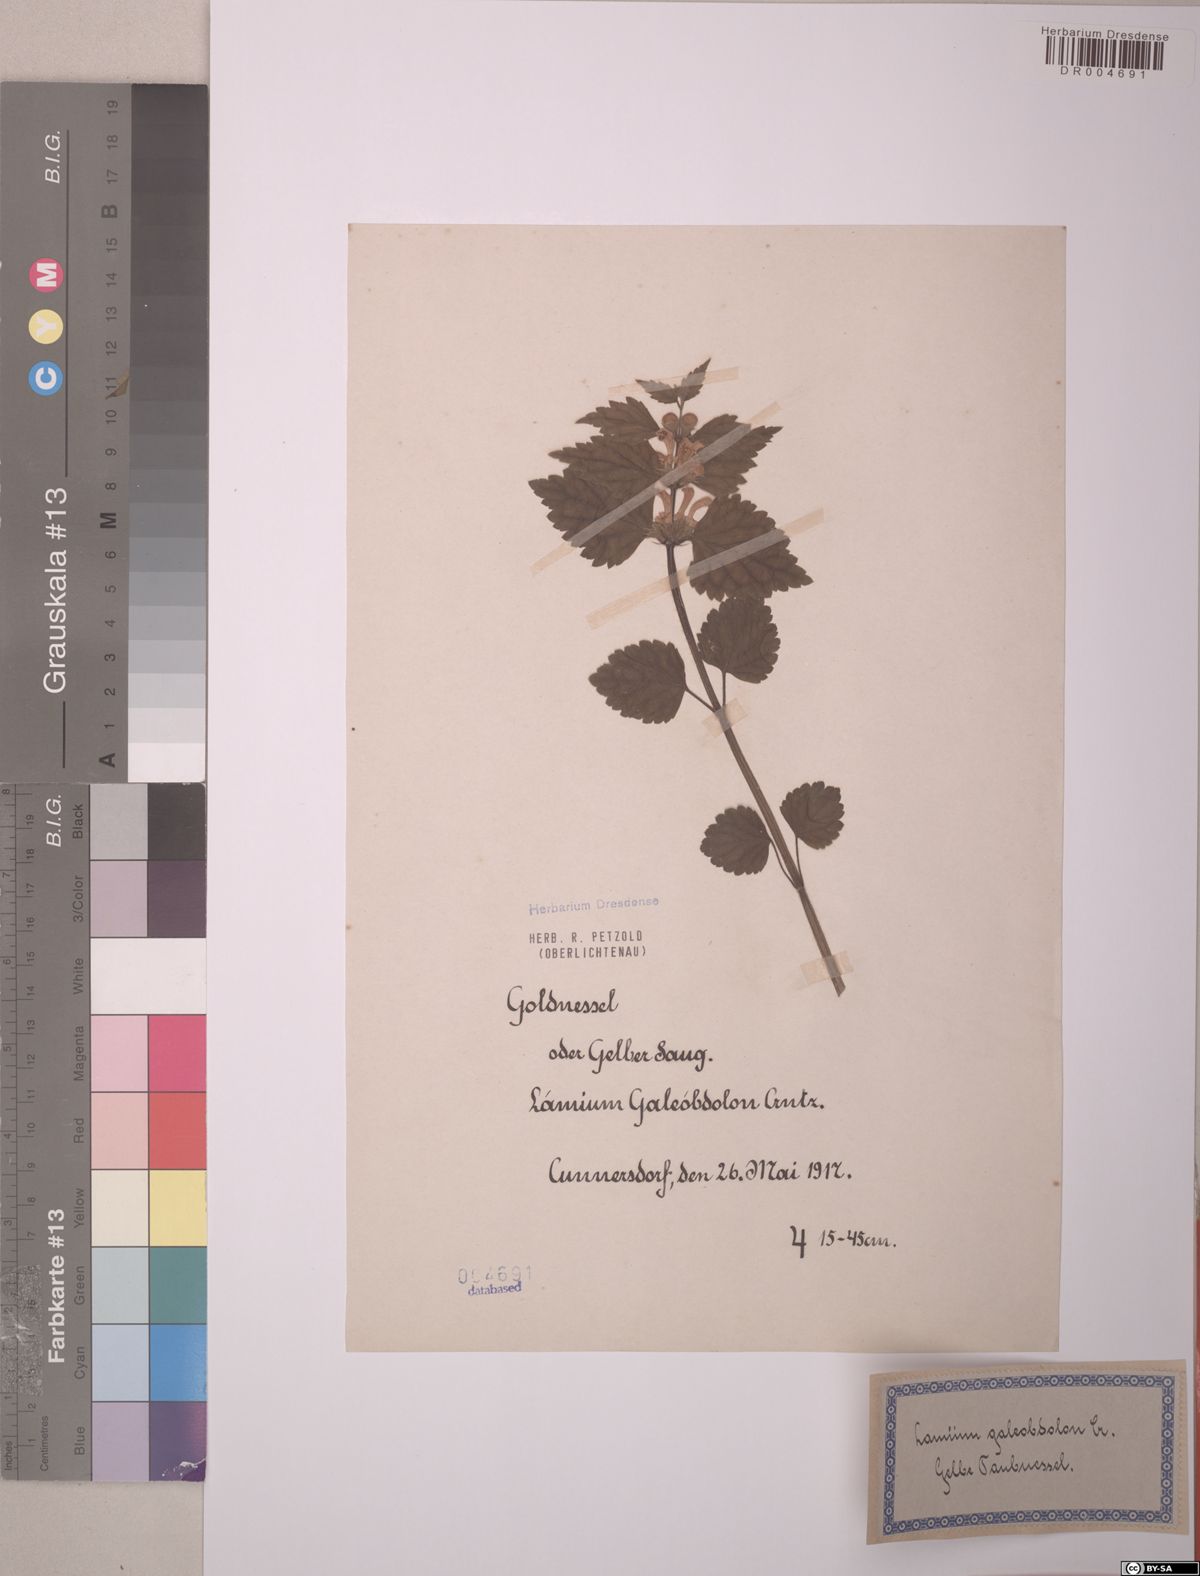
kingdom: Plantae
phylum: Tracheophyta
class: Magnoliopsida
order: Lamiales
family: Lamiaceae
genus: Lamium
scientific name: Lamium galeobdolon
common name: Yellow archangel
